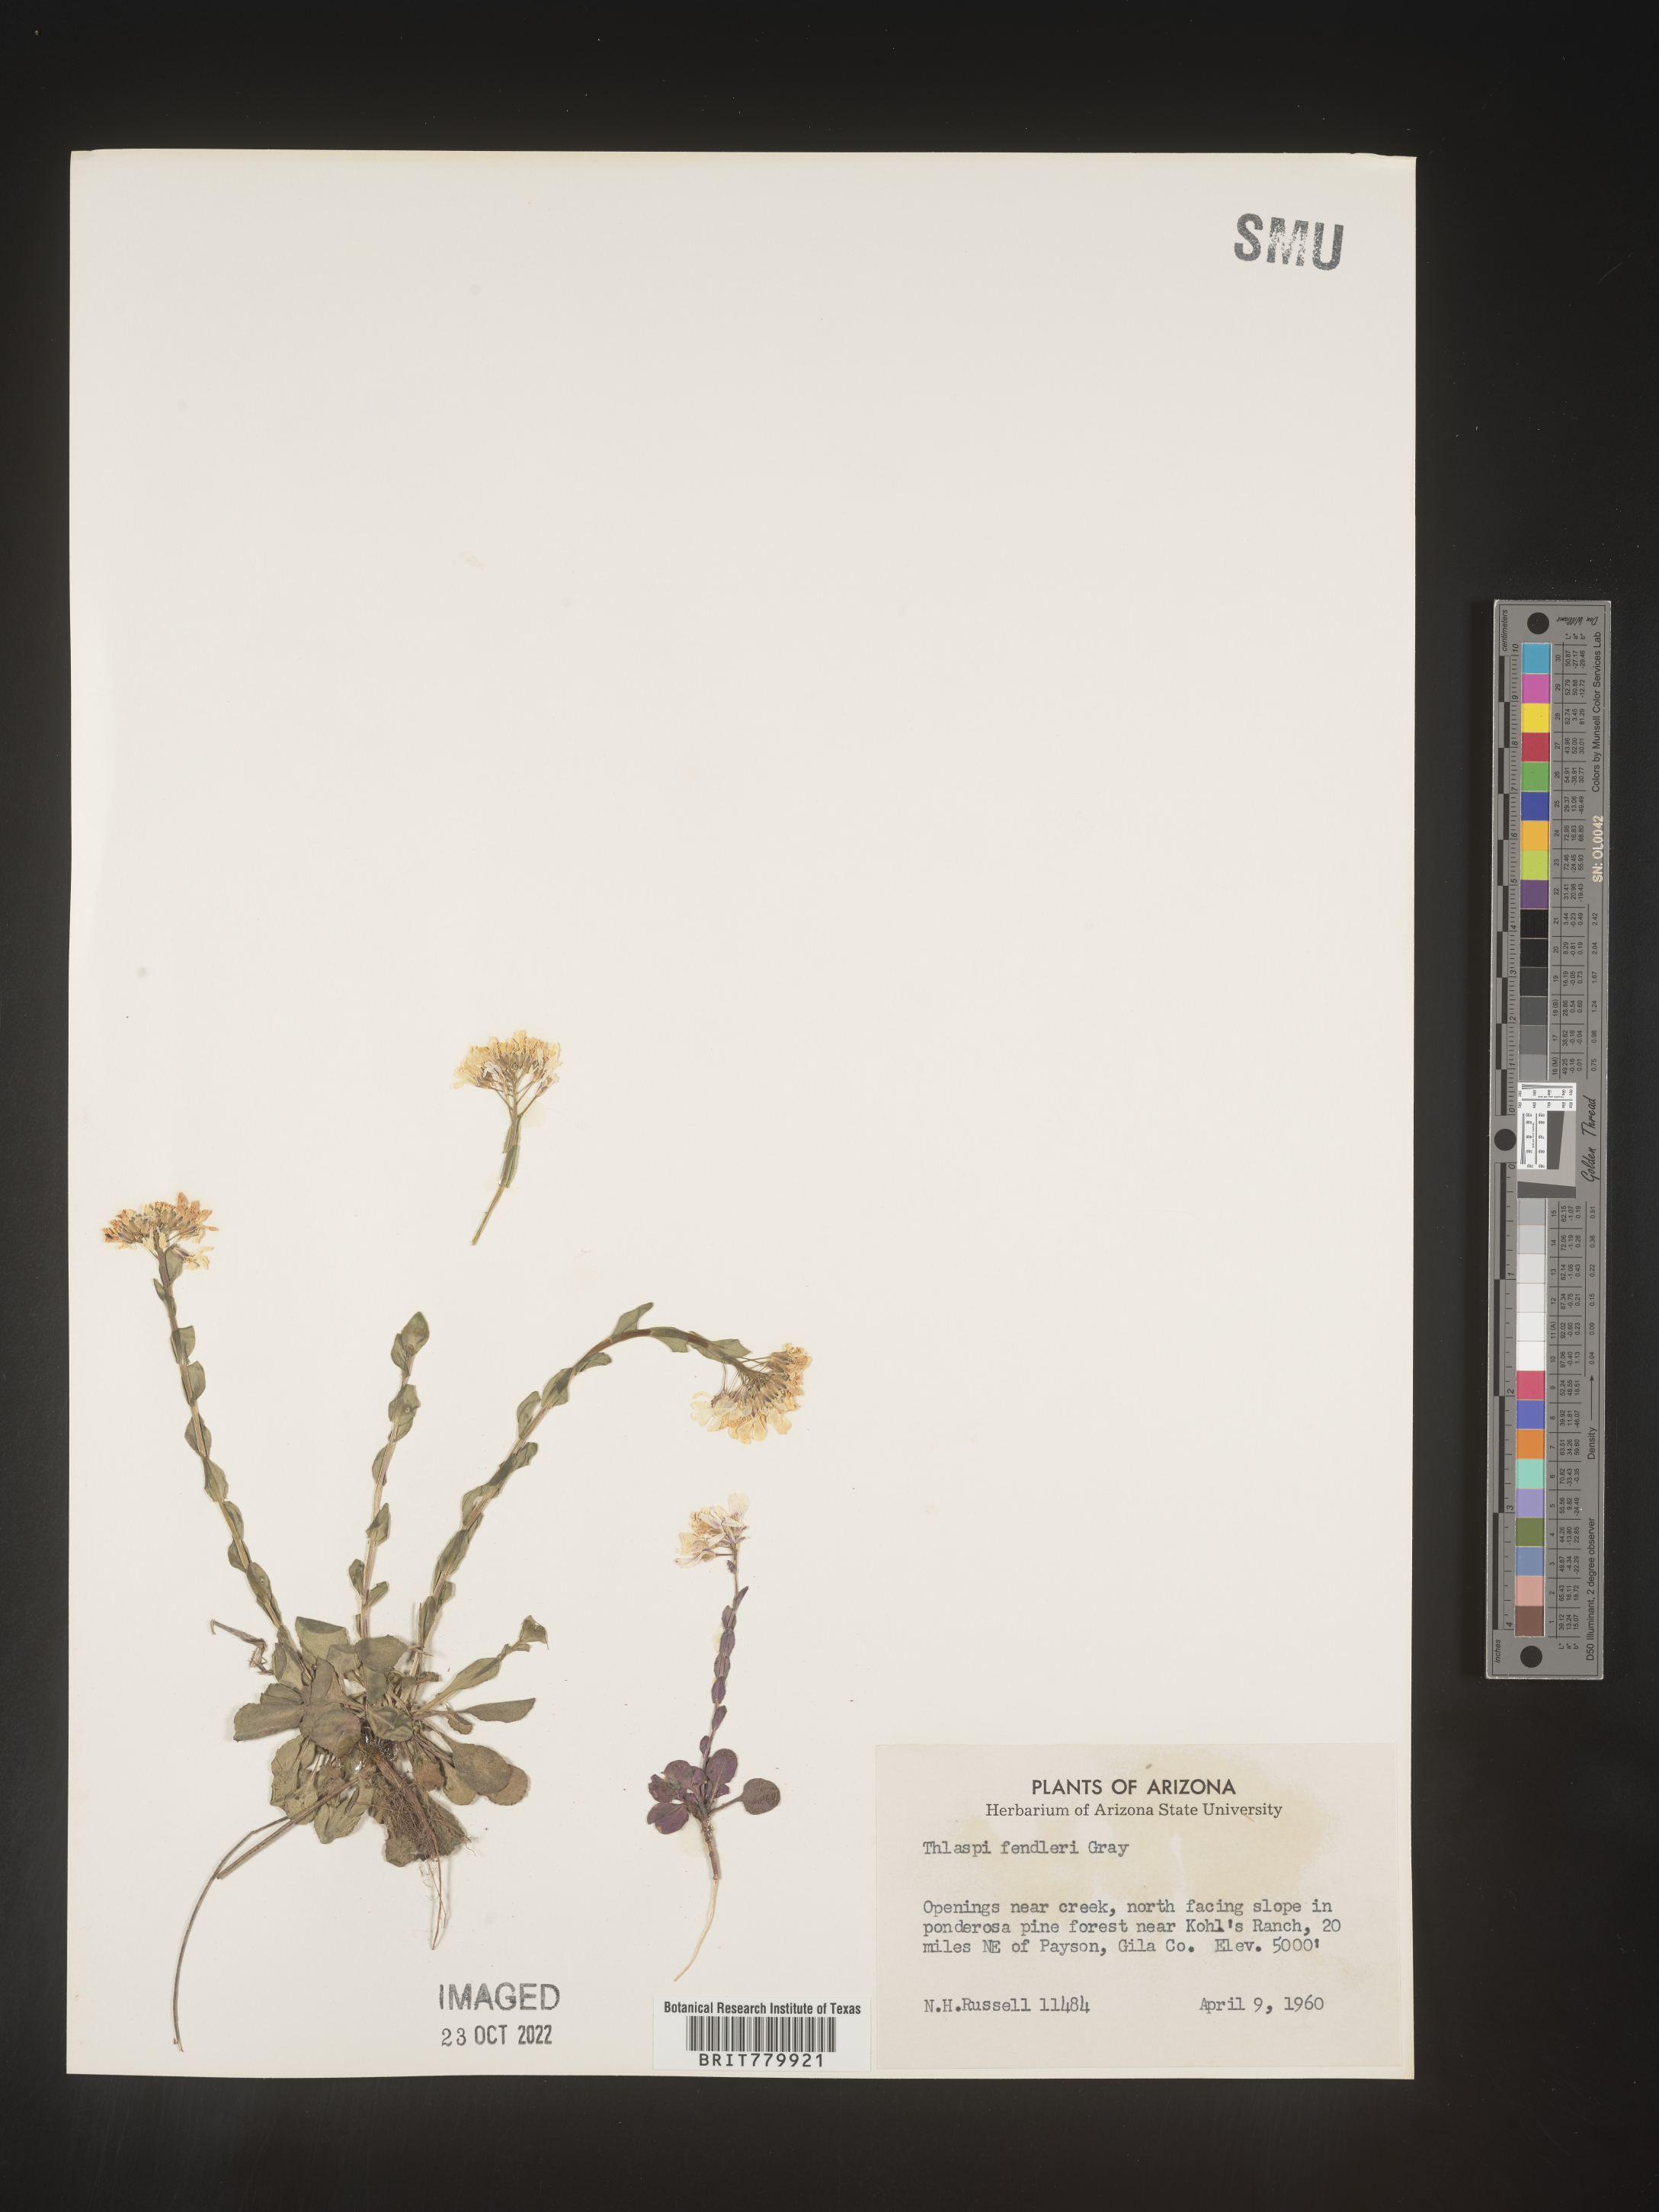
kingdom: Plantae
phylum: Tracheophyta
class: Magnoliopsida
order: Brassicales
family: Brassicaceae
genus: Thlaspi
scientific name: Thlaspi
